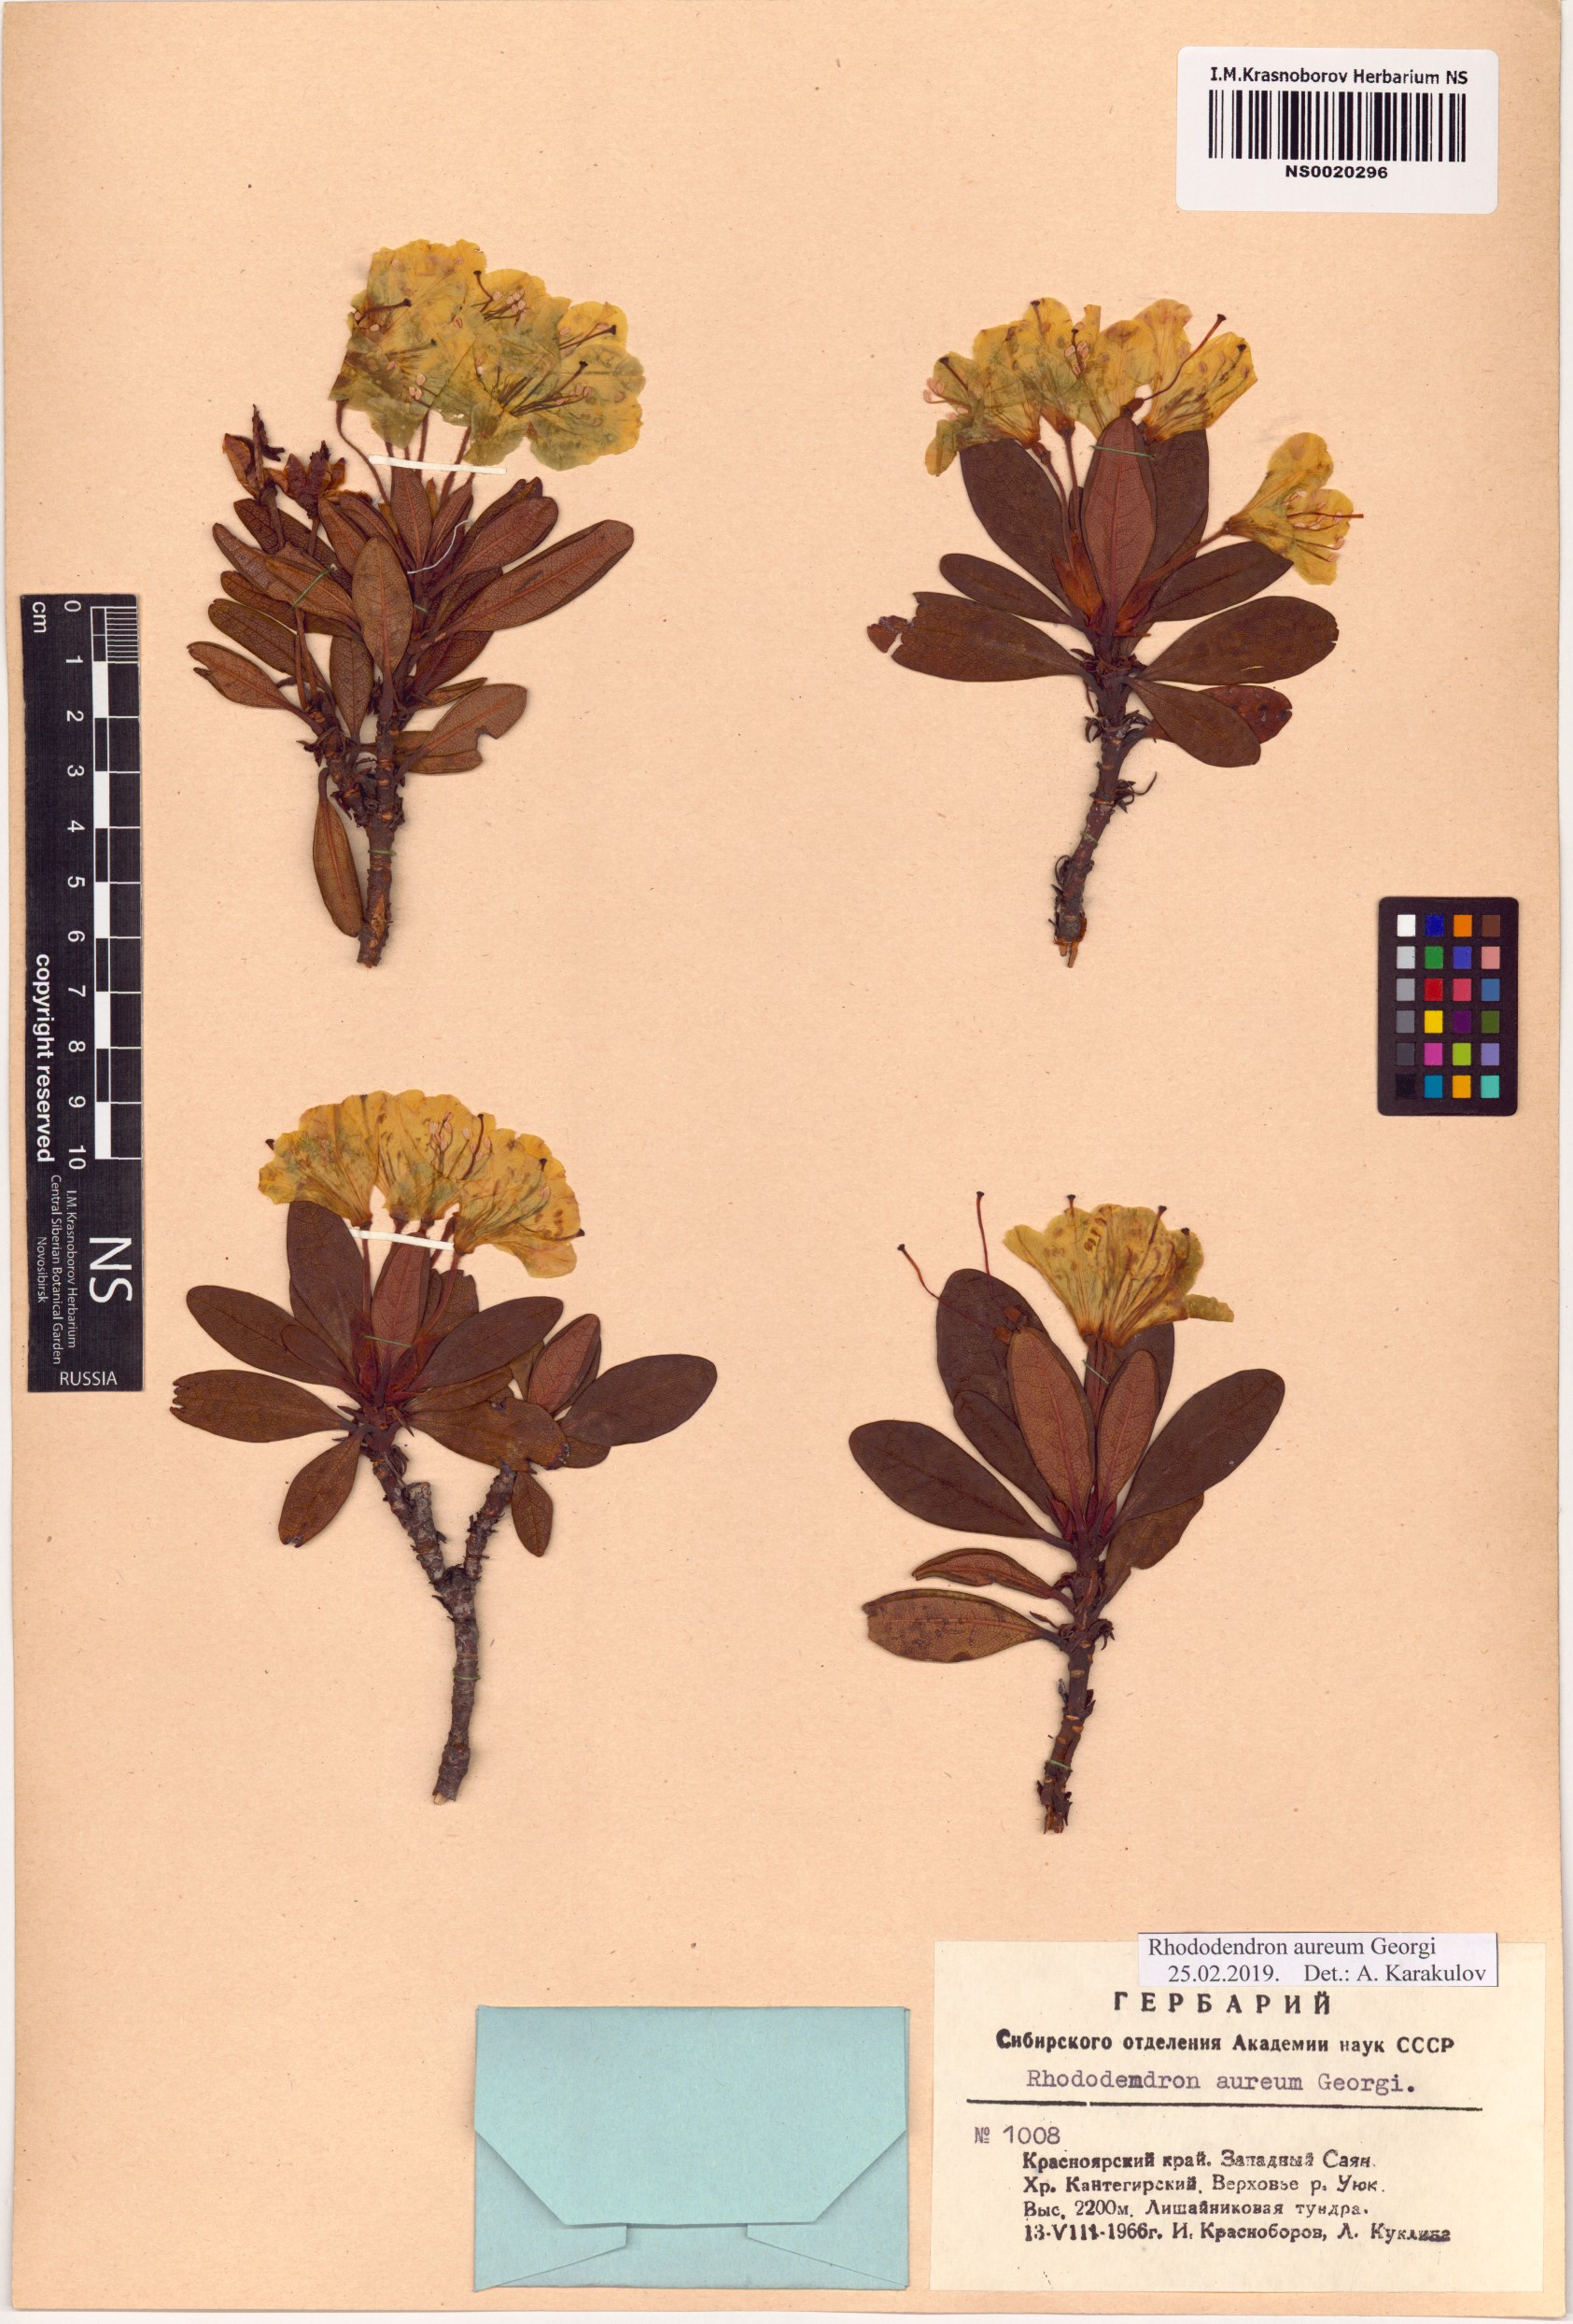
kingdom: Plantae
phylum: Tracheophyta
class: Magnoliopsida
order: Ericales
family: Ericaceae
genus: Rhododendron
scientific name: Rhododendron aureum
